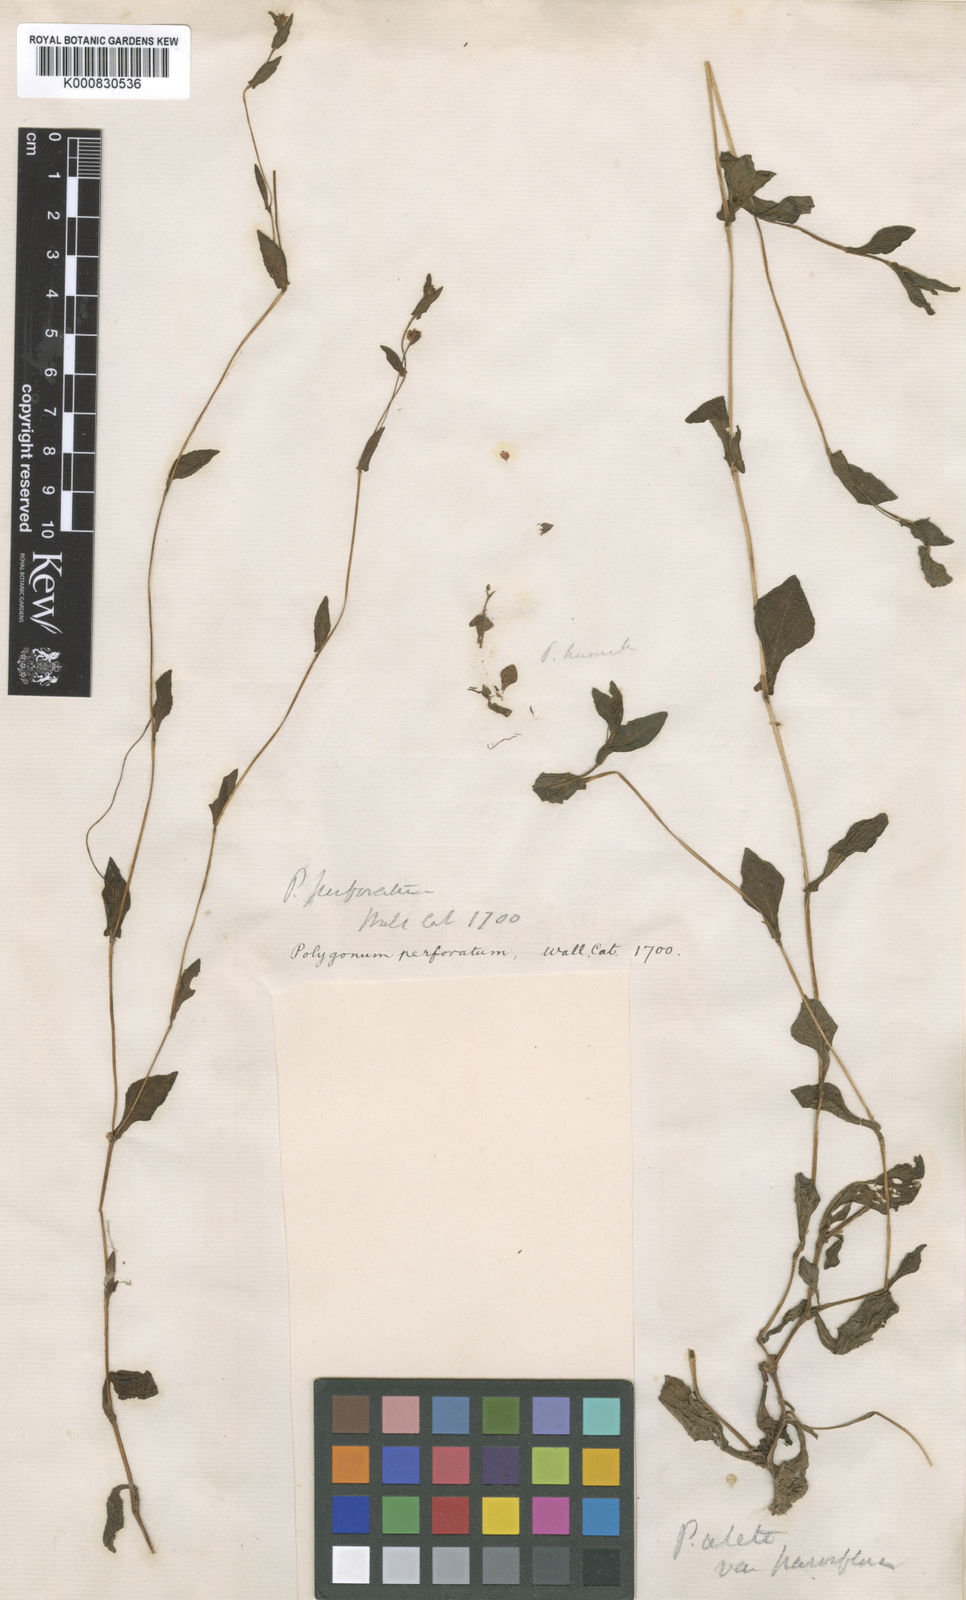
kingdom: Plantae
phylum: Tracheophyta
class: Magnoliopsida
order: Caryophyllales
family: Polygonaceae
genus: Polygonum
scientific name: Polygonum
